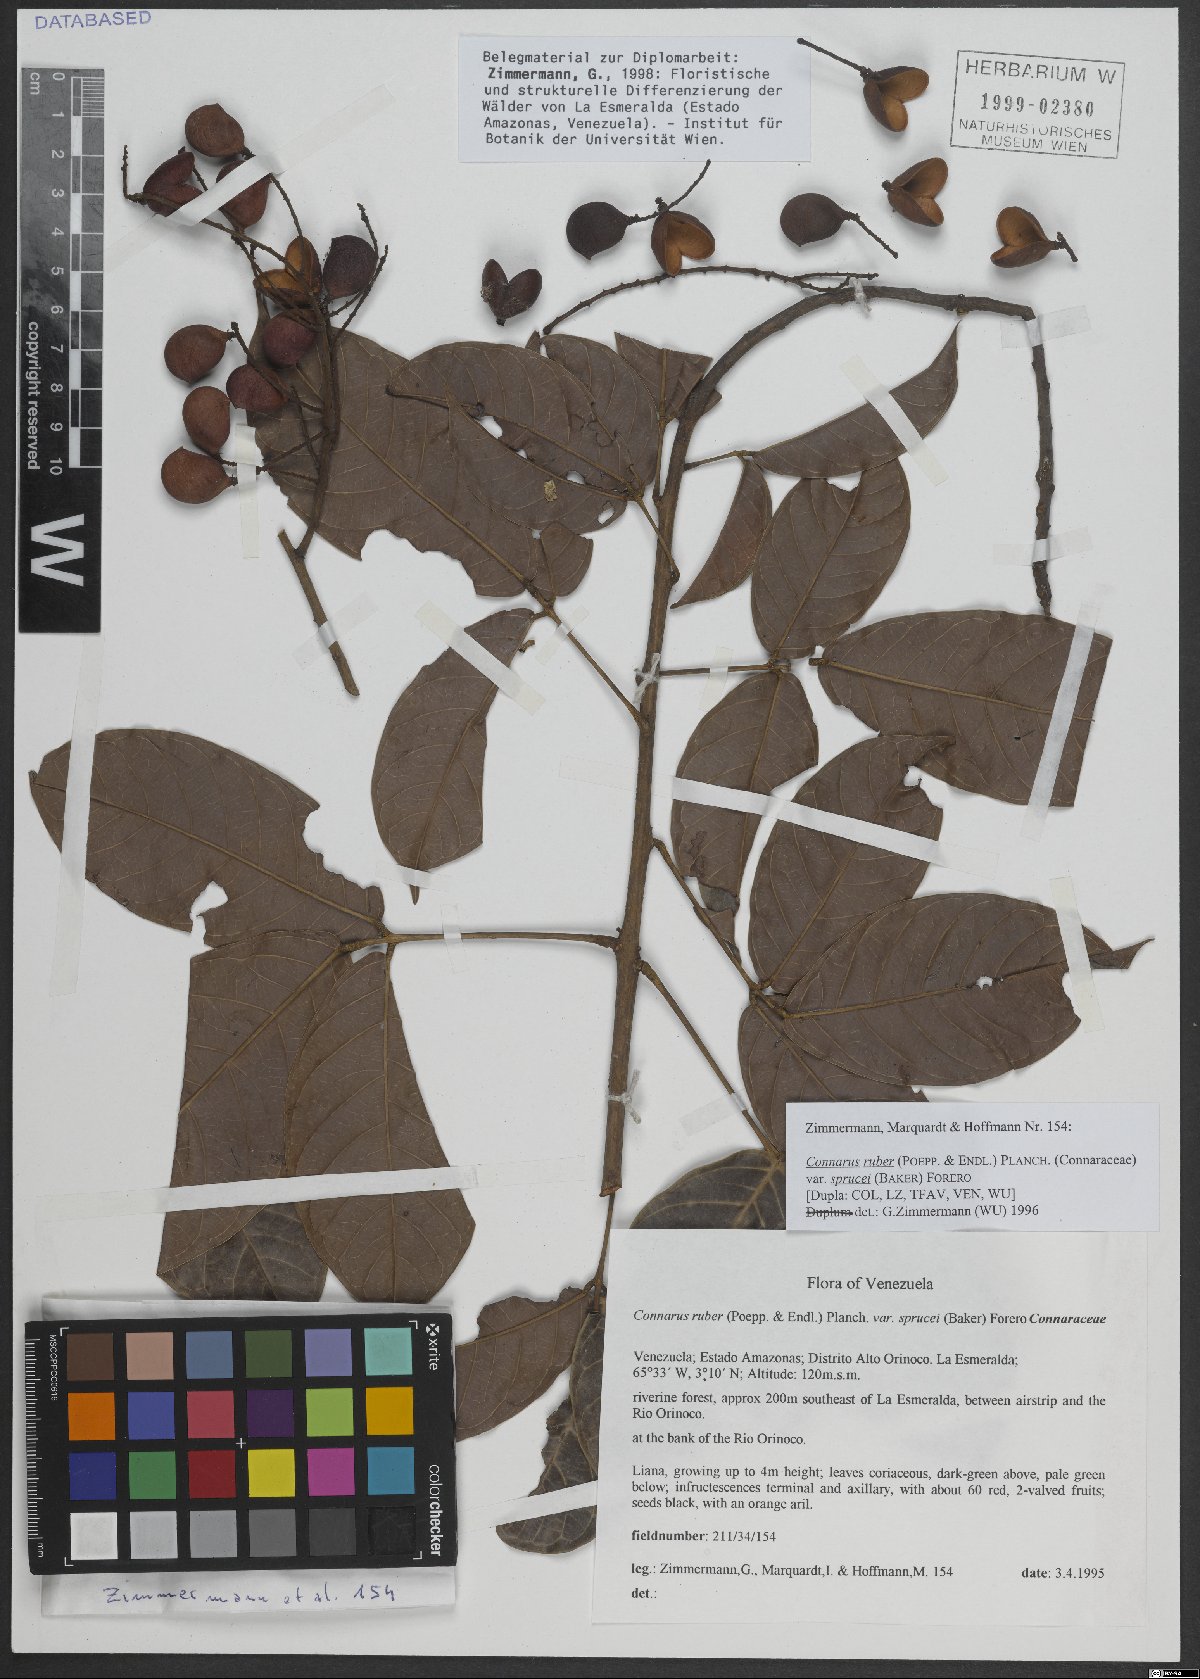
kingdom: Plantae
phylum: Tracheophyta
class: Magnoliopsida
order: Oxalidales
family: Connaraceae
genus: Connarus
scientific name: Connarus ruber
